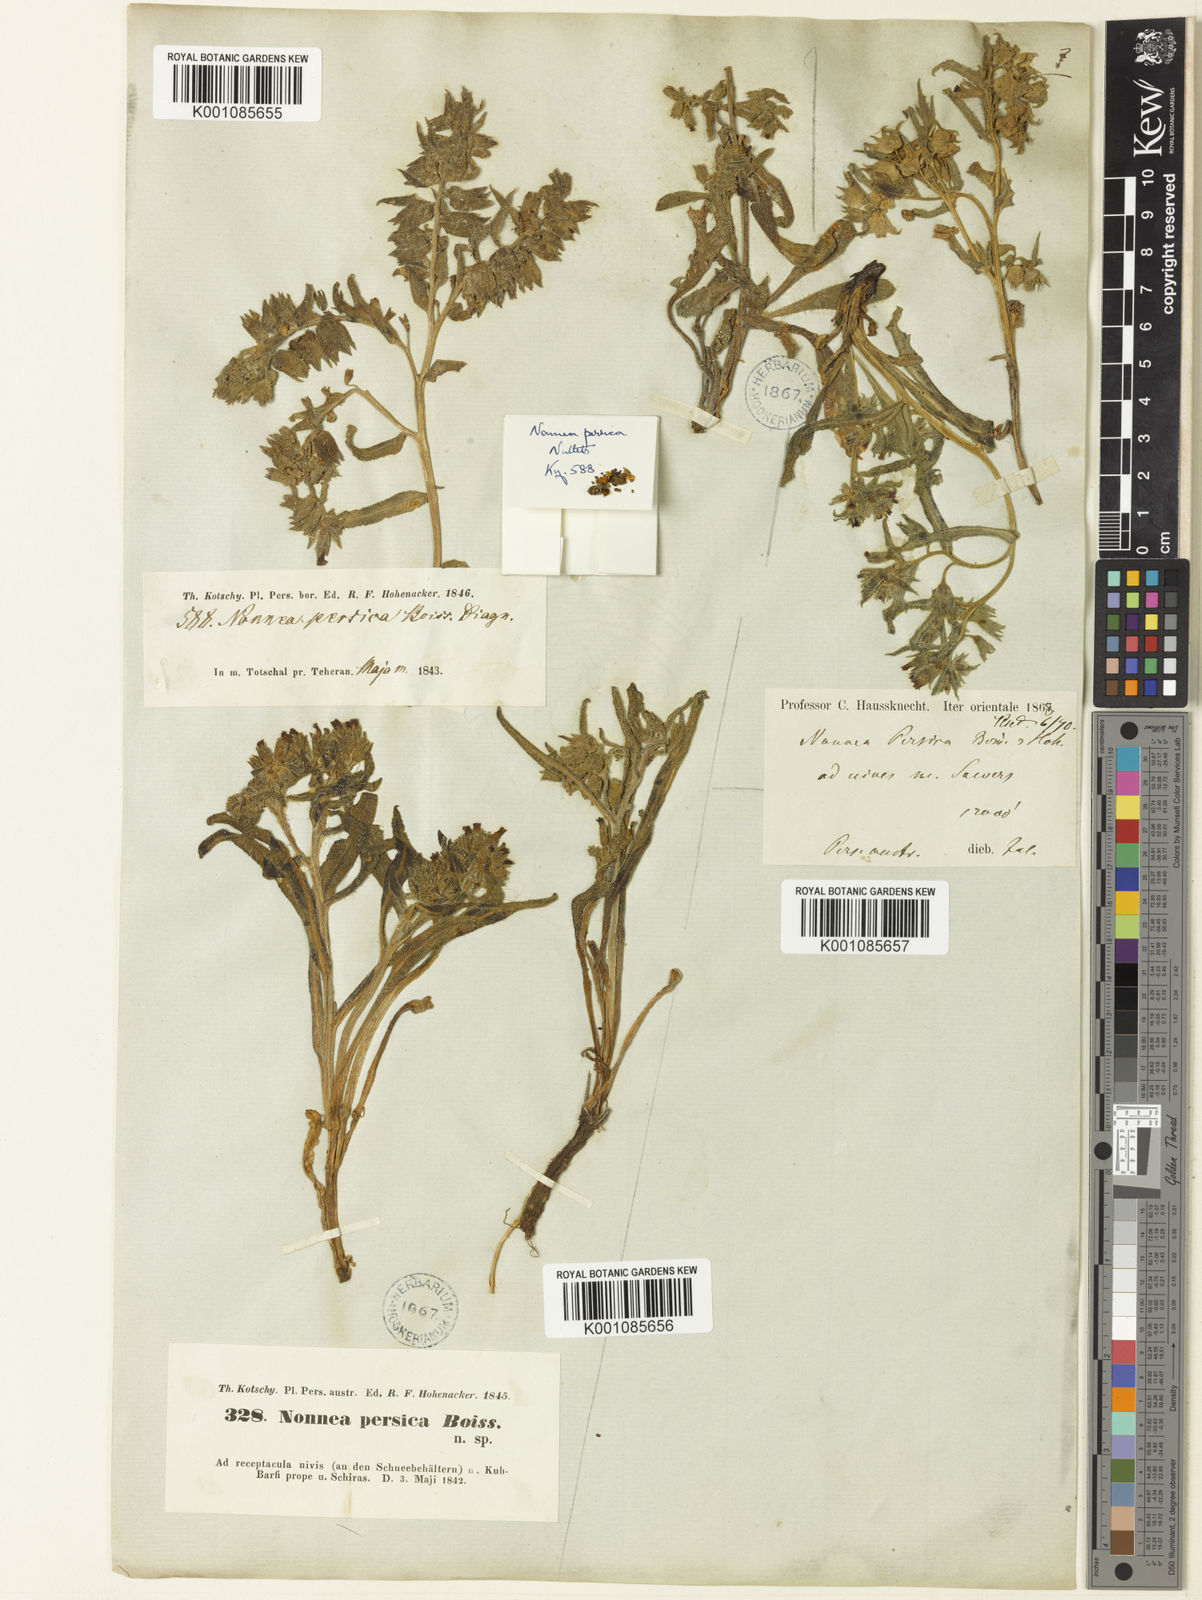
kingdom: Plantae
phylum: Tracheophyta
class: Magnoliopsida
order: Boraginales
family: Boraginaceae
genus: Nonea
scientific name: Nonea persica
